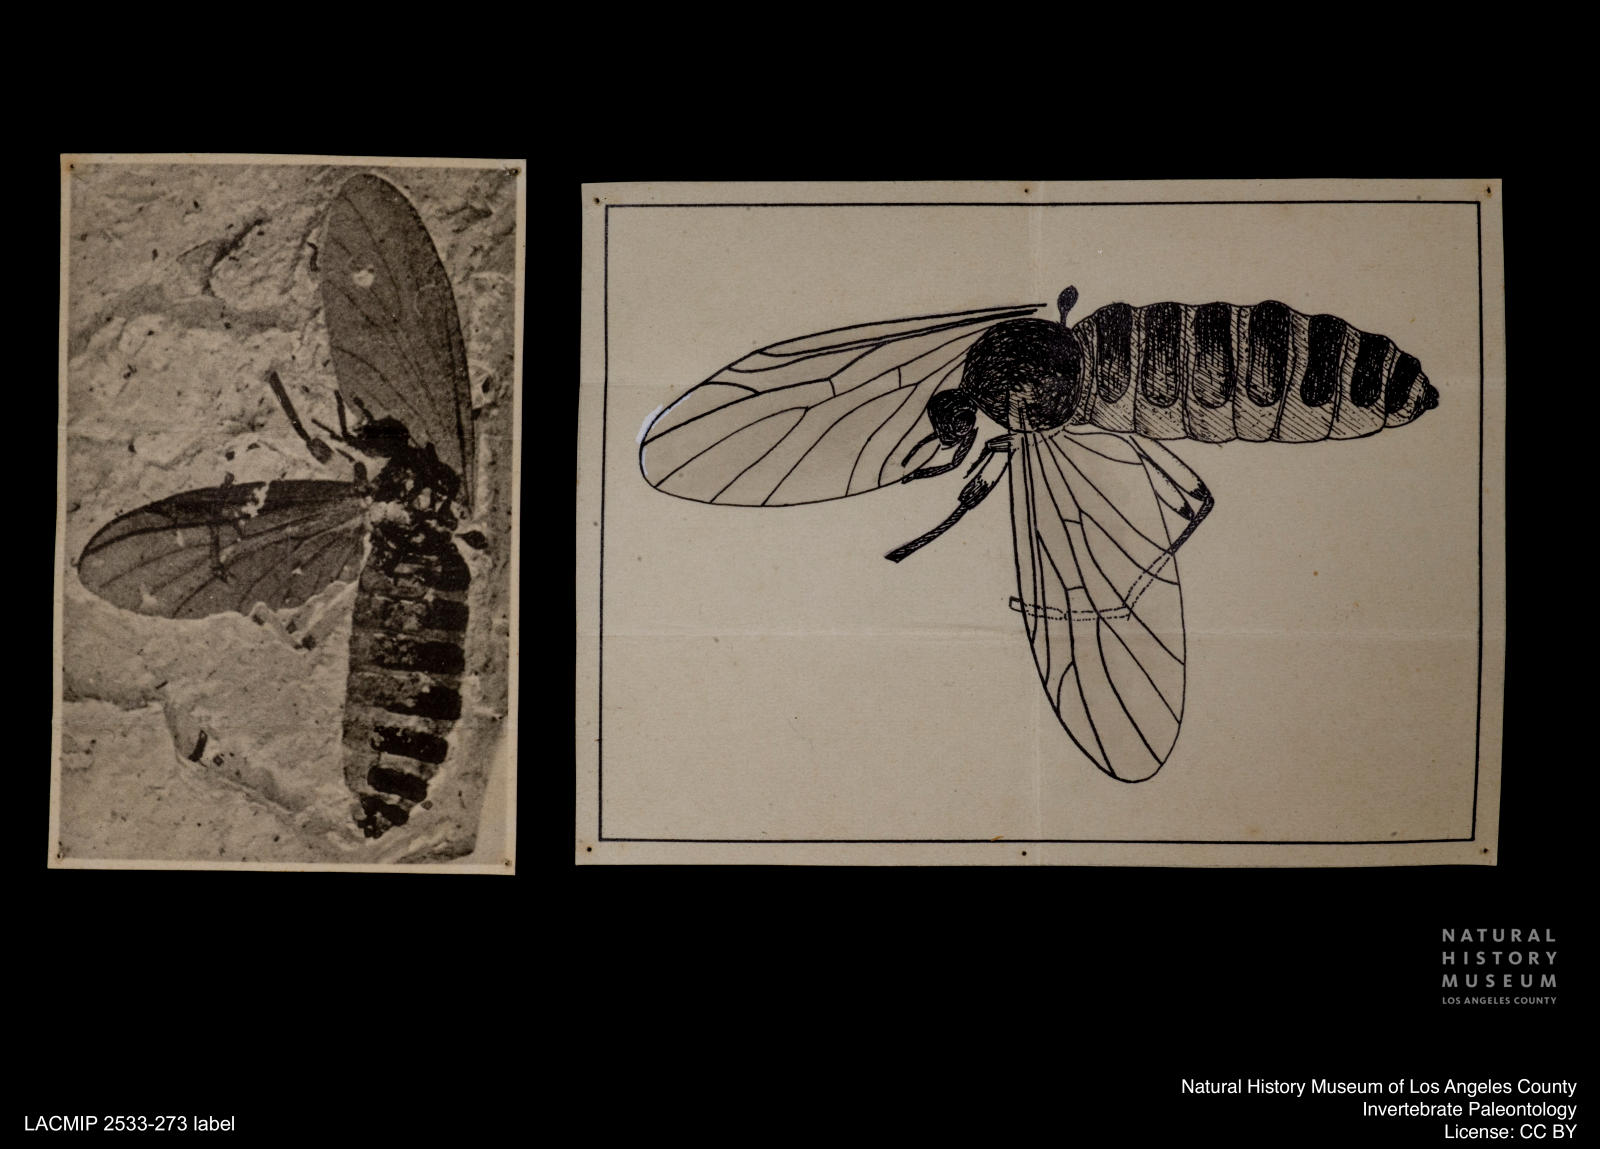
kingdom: Animalia
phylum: Arthropoda
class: Insecta
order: Diptera
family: Bibionidae
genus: Plecia
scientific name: Plecia hypogaea
